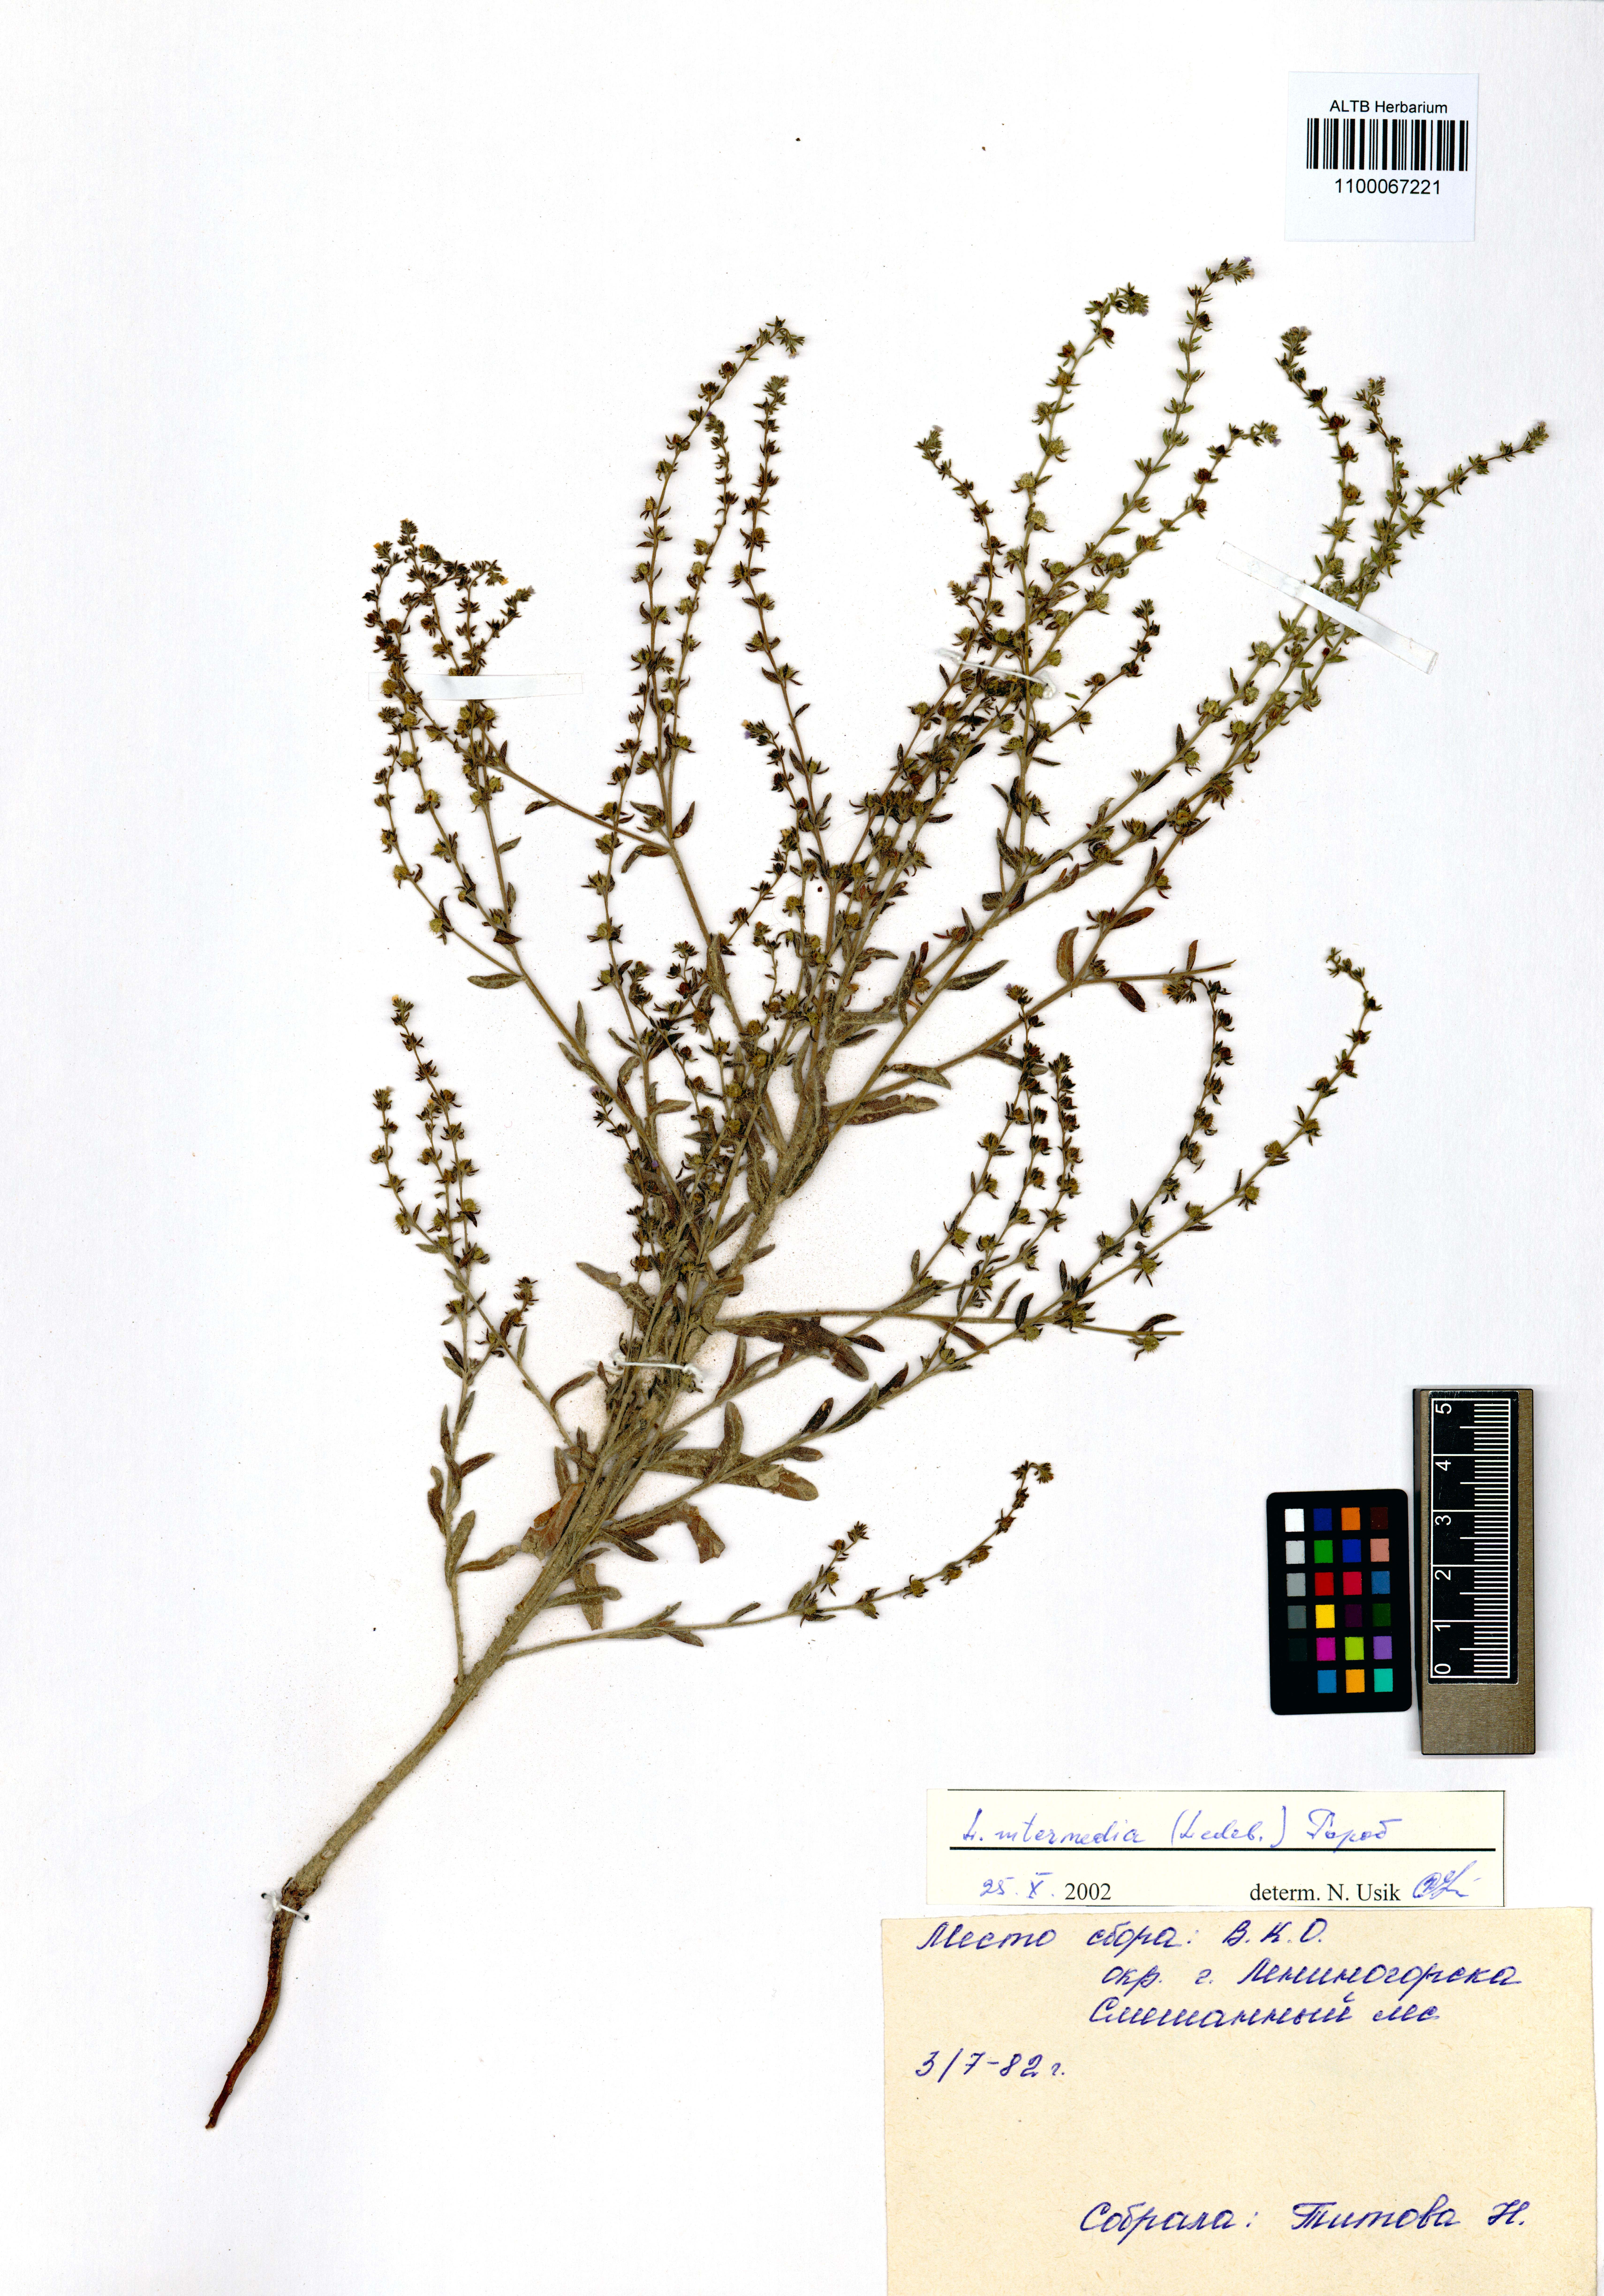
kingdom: Plantae
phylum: Tracheophyta
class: Magnoliopsida
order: Boraginales
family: Boraginaceae
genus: Lappula
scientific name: Lappula intermedia
